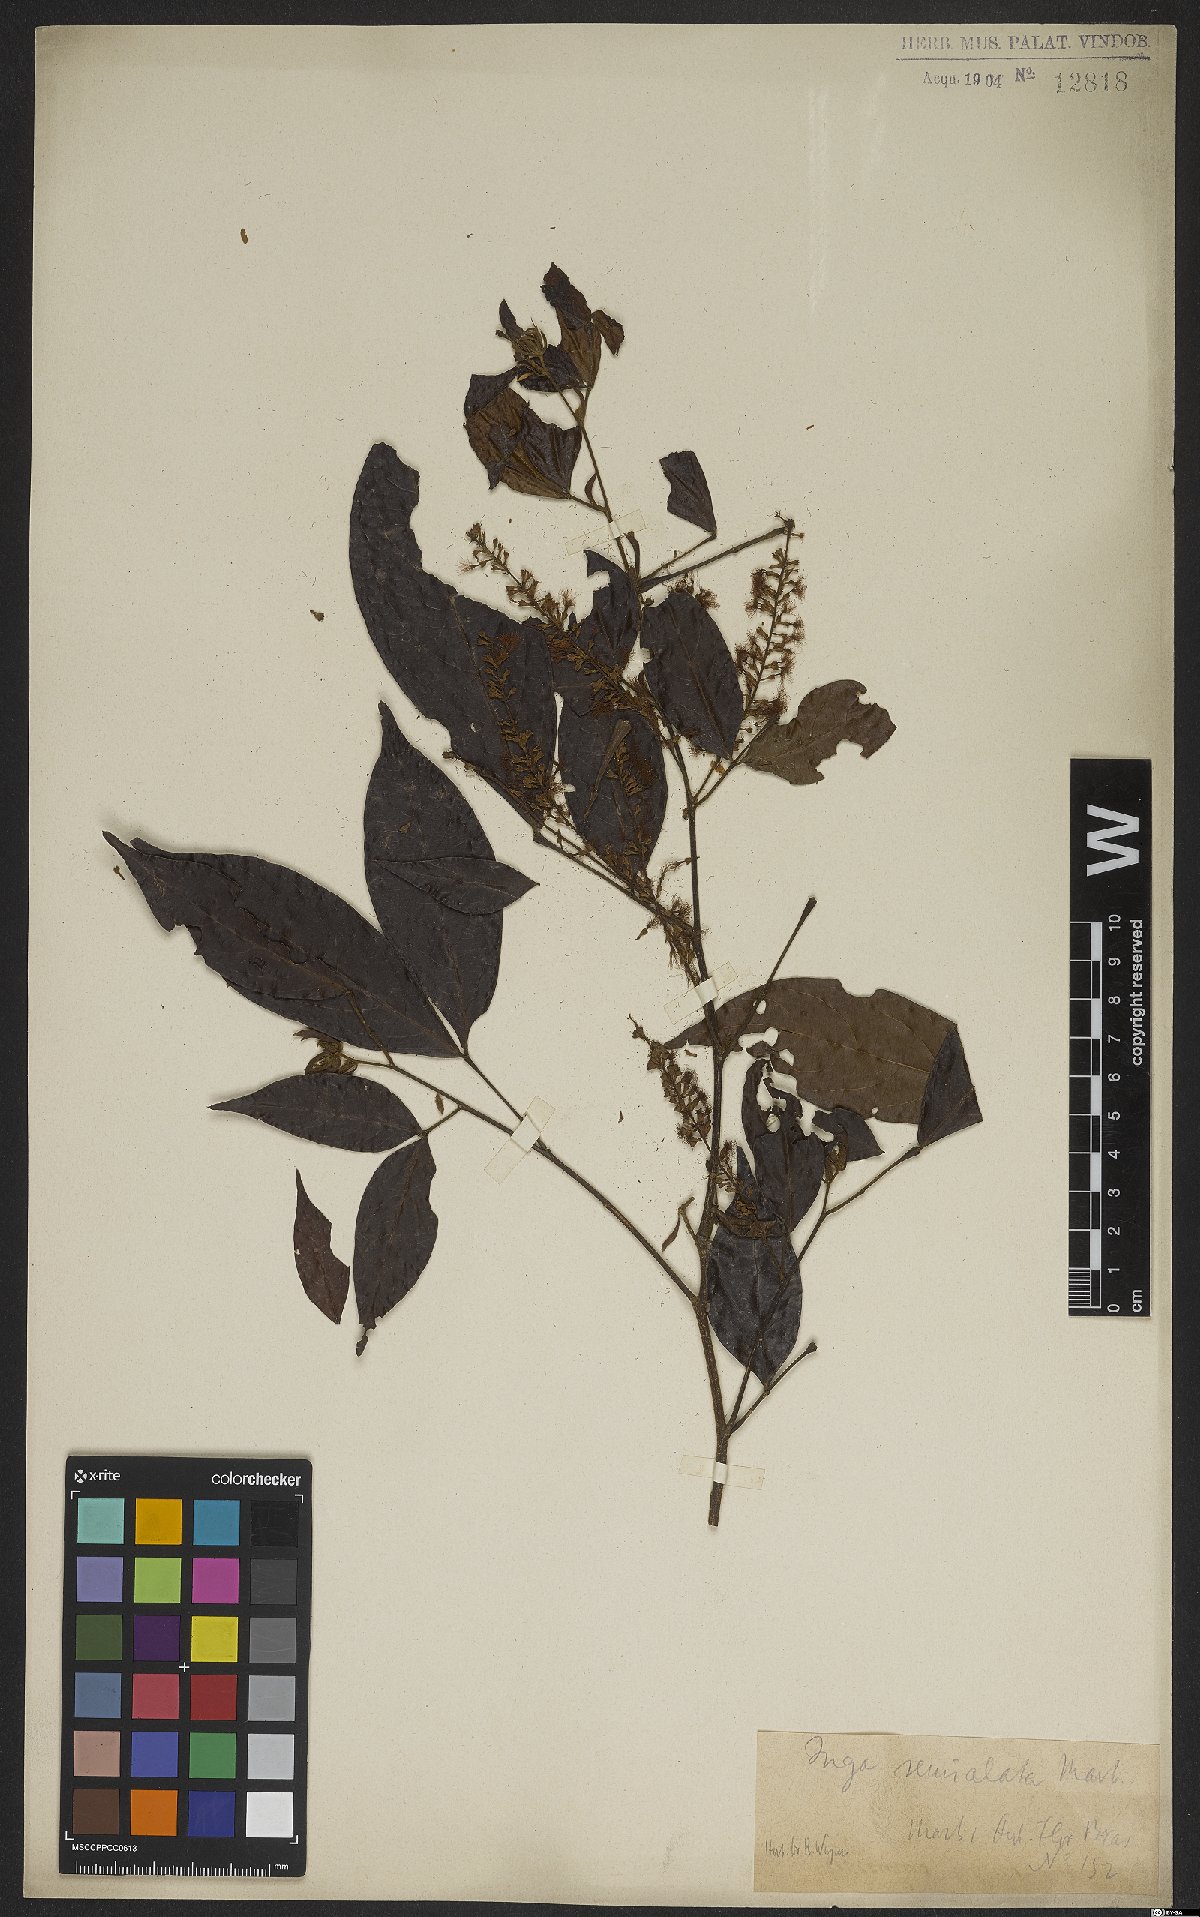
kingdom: Plantae
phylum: Tracheophyta
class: Magnoliopsida
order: Fabales
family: Fabaceae
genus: Inga
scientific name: Inga marginata
